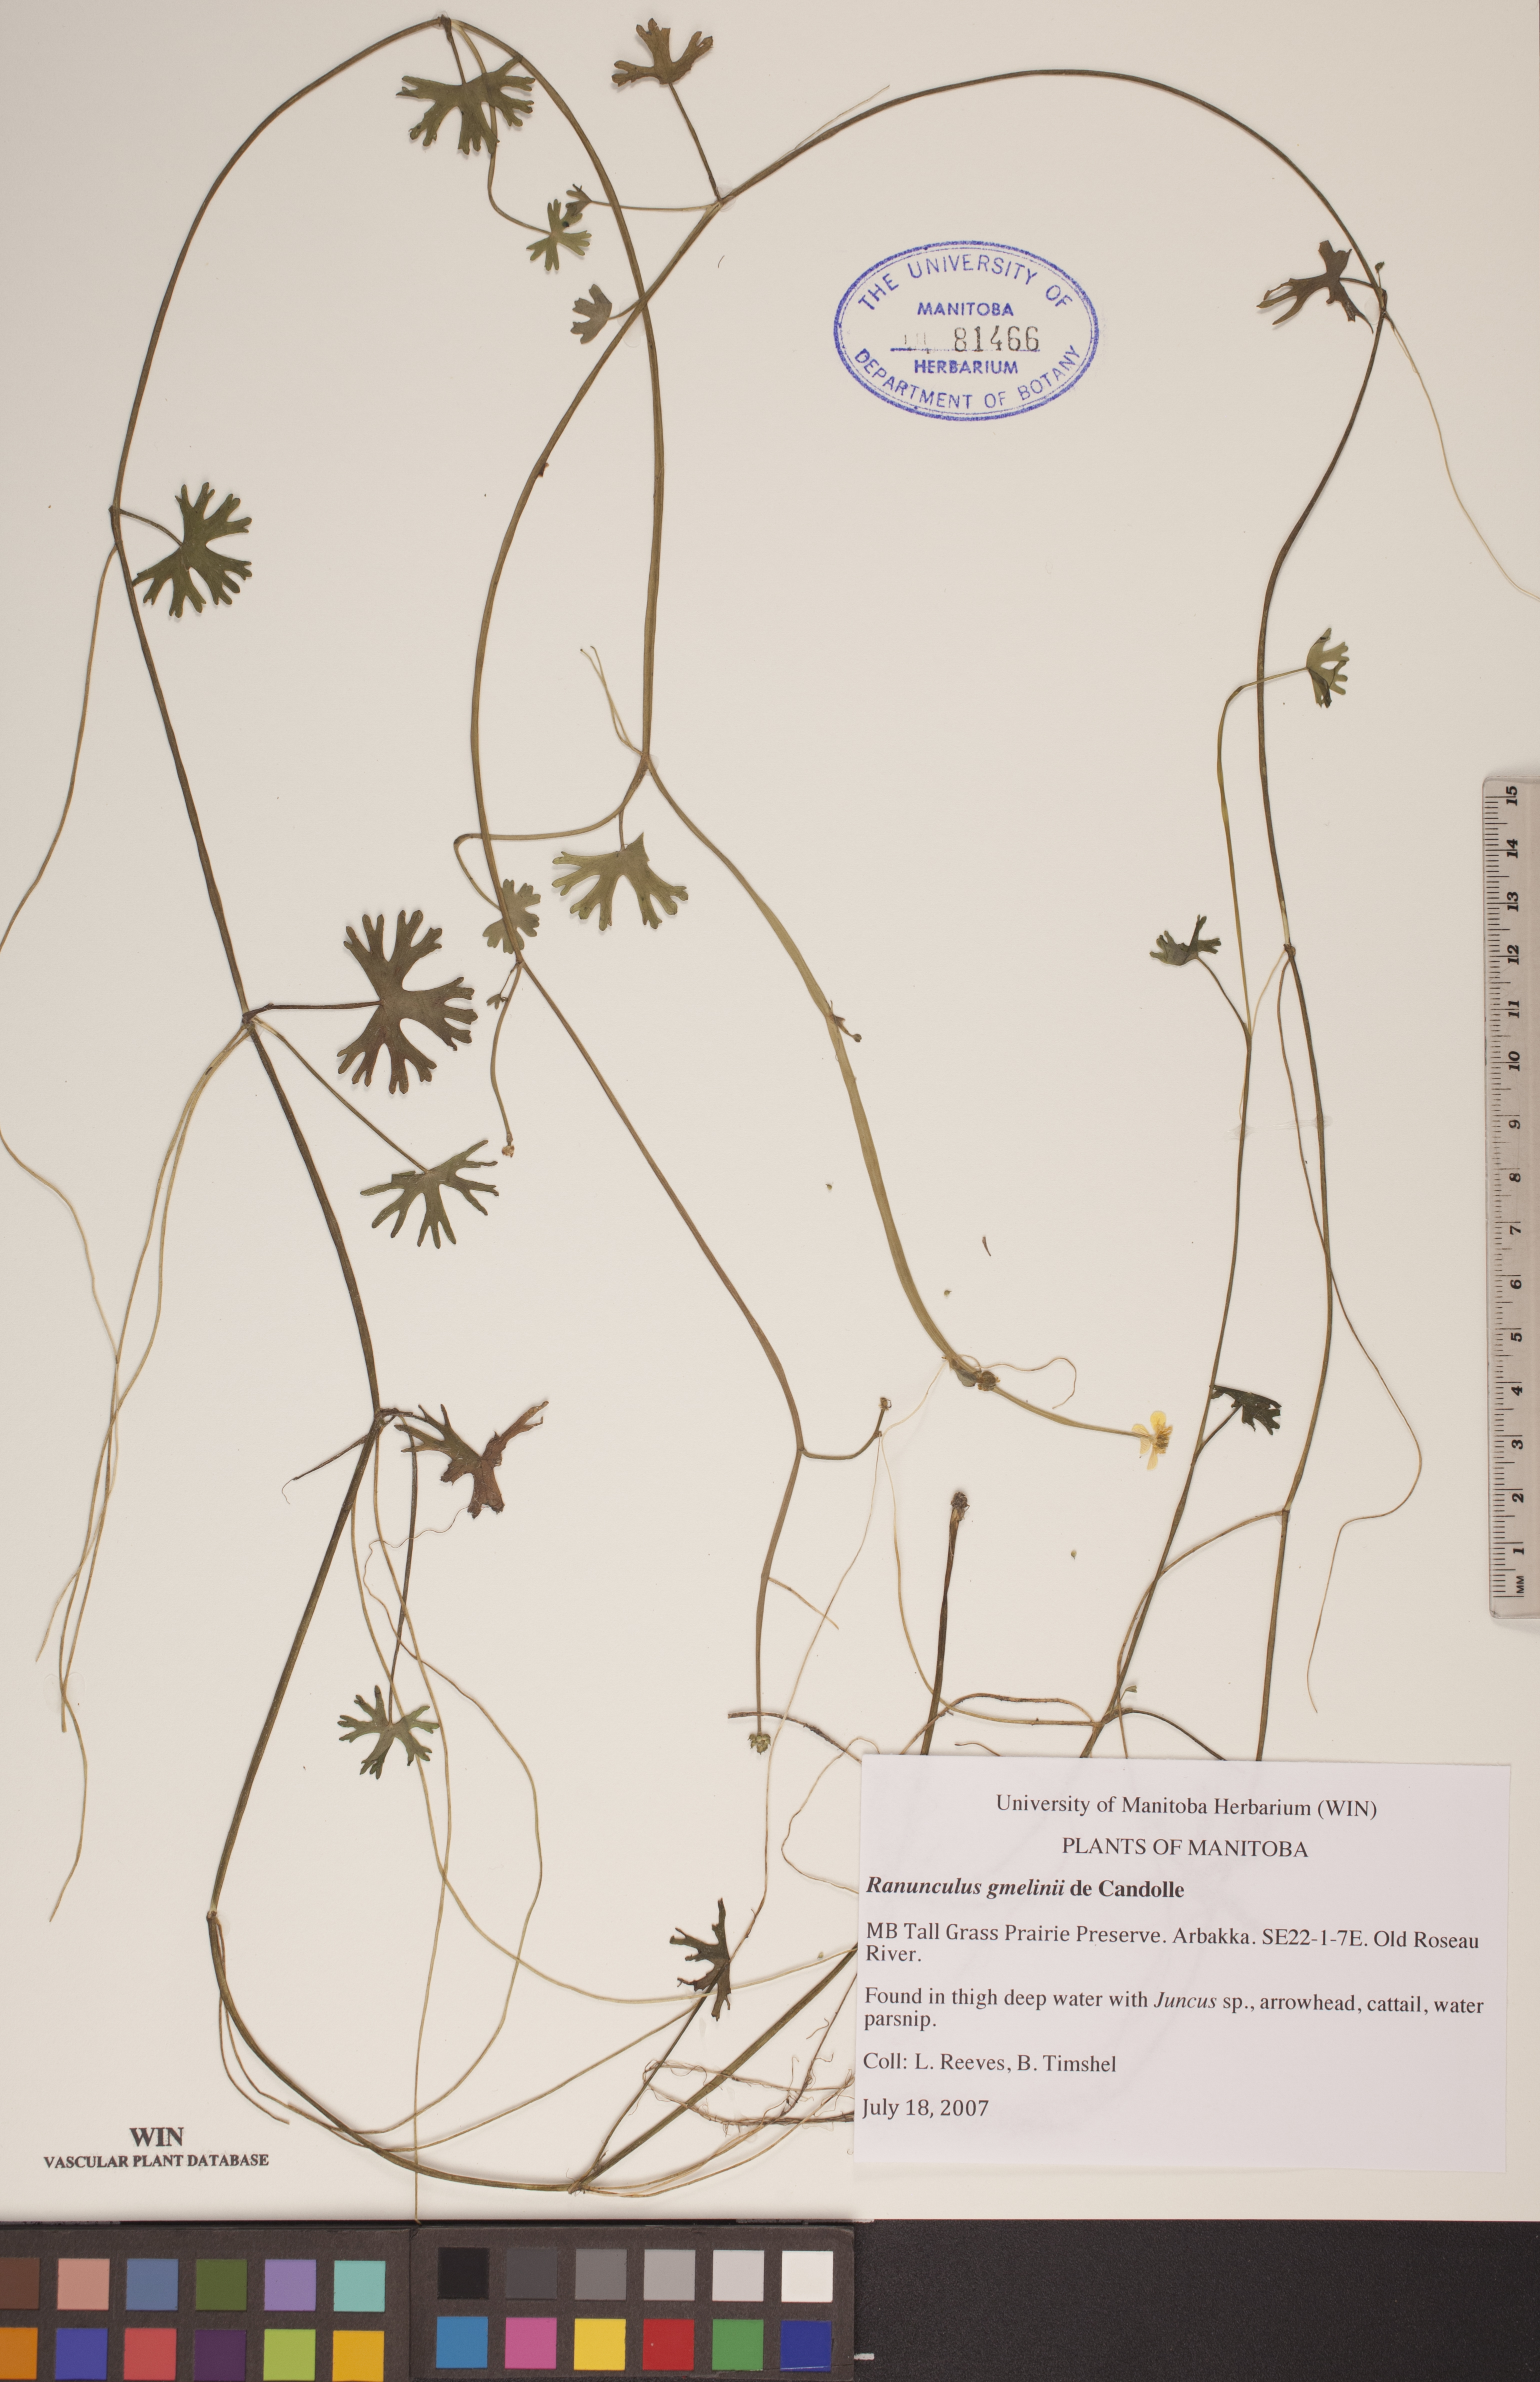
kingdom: Plantae
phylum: Tracheophyta
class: Magnoliopsida
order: Ranunculales
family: Ranunculaceae
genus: Ranunculus
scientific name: Ranunculus gmelinii
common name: Gmelin's buttercup
